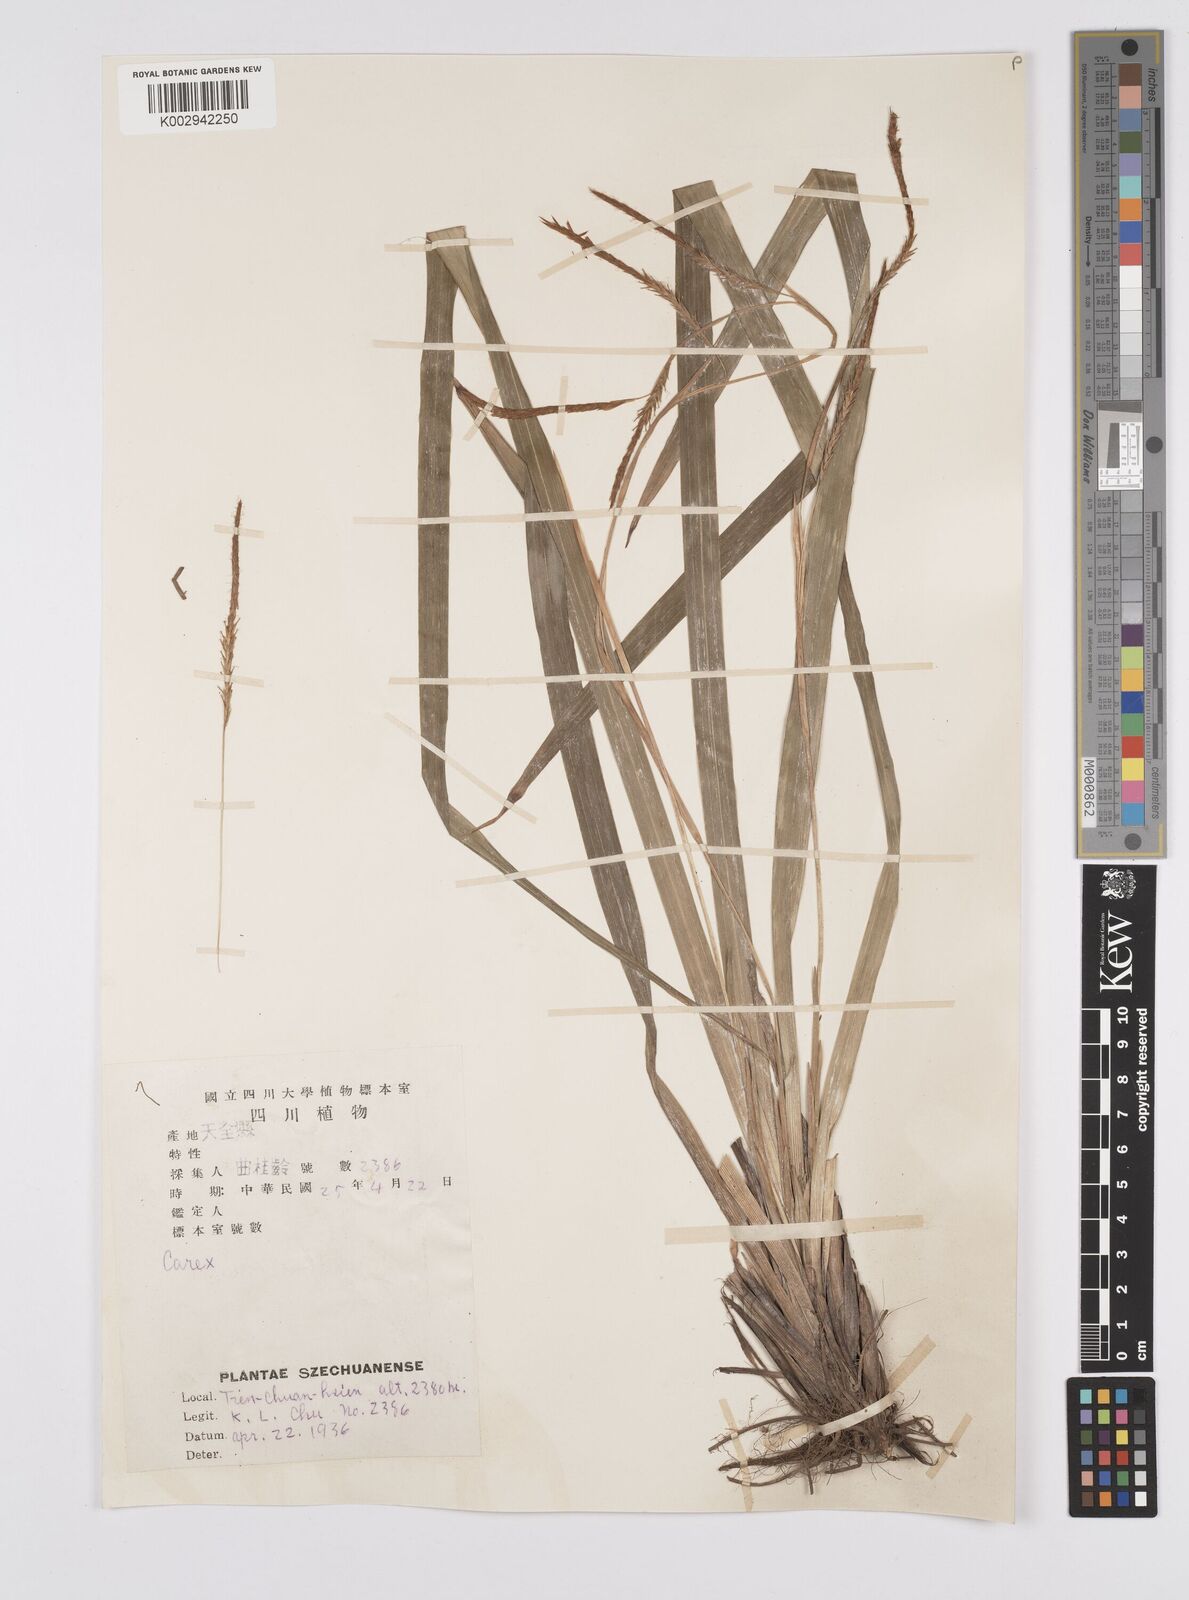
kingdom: Plantae
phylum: Tracheophyta
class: Liliopsida
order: Poales
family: Cyperaceae
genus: Carex
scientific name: Carex thibetica
